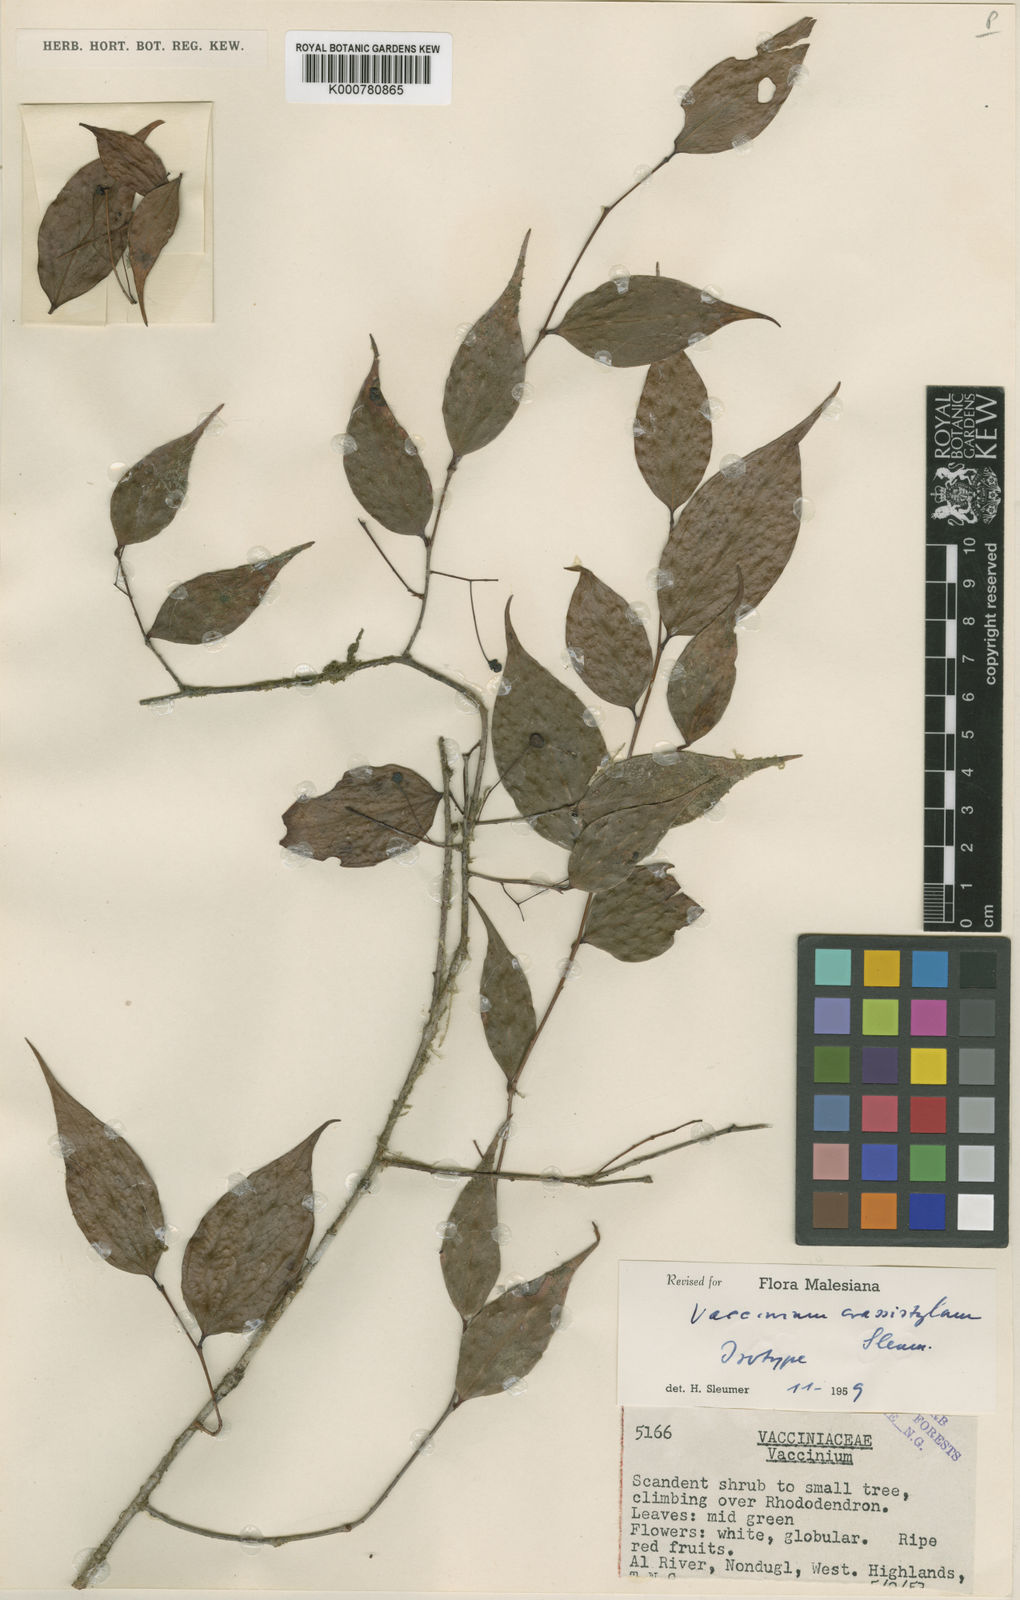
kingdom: Plantae
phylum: Tracheophyta
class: Magnoliopsida
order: Ericales
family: Ericaceae
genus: Vaccinium
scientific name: Vaccinium crassistylum
